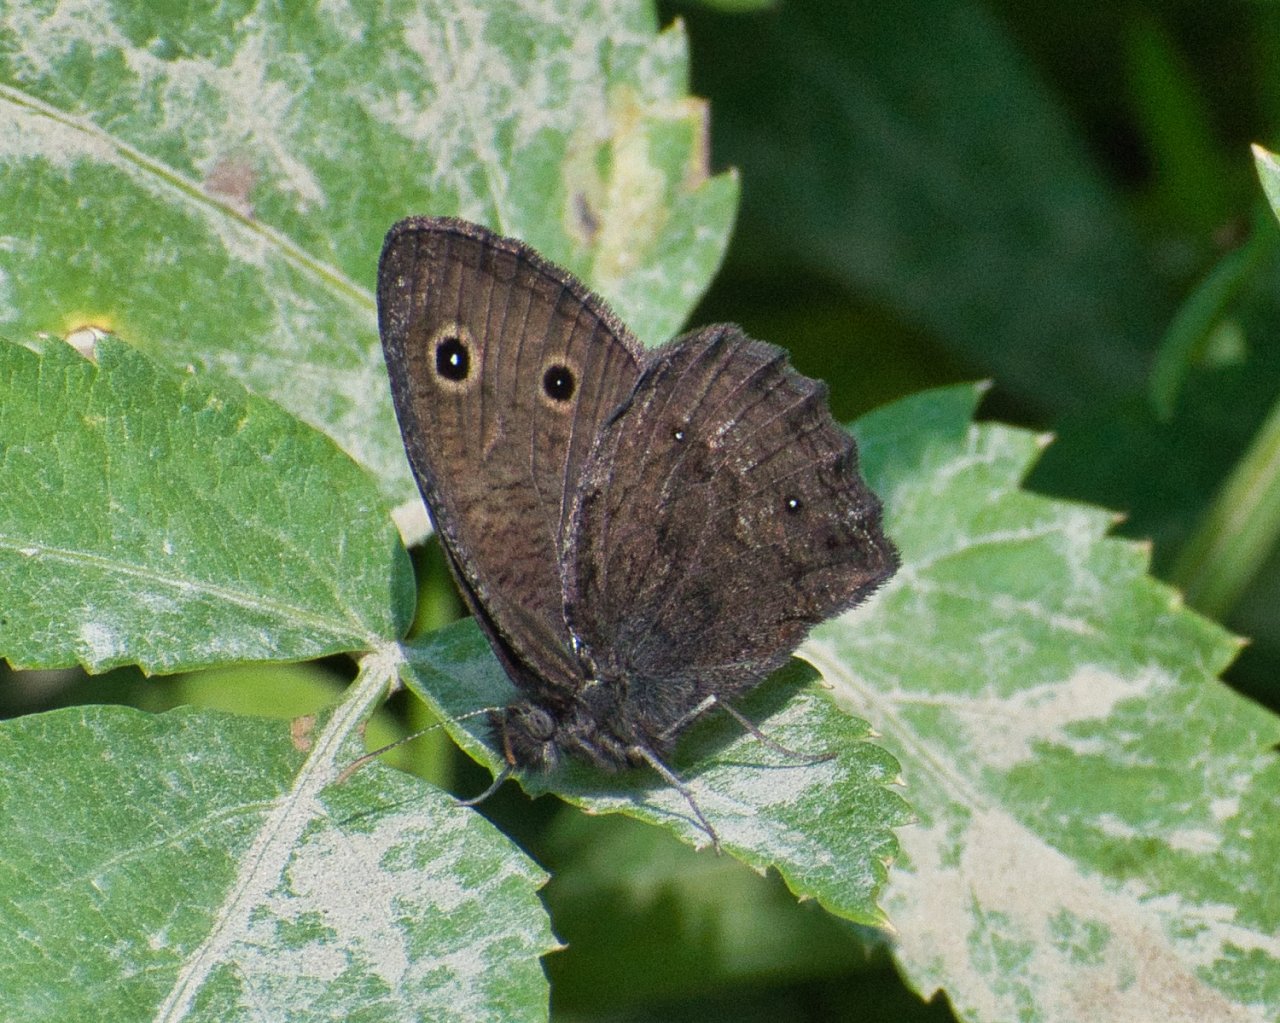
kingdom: Animalia
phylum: Arthropoda
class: Insecta
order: Lepidoptera
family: Nymphalidae
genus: Cercyonis
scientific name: Cercyonis oetus
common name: Small Wood-Nymph
